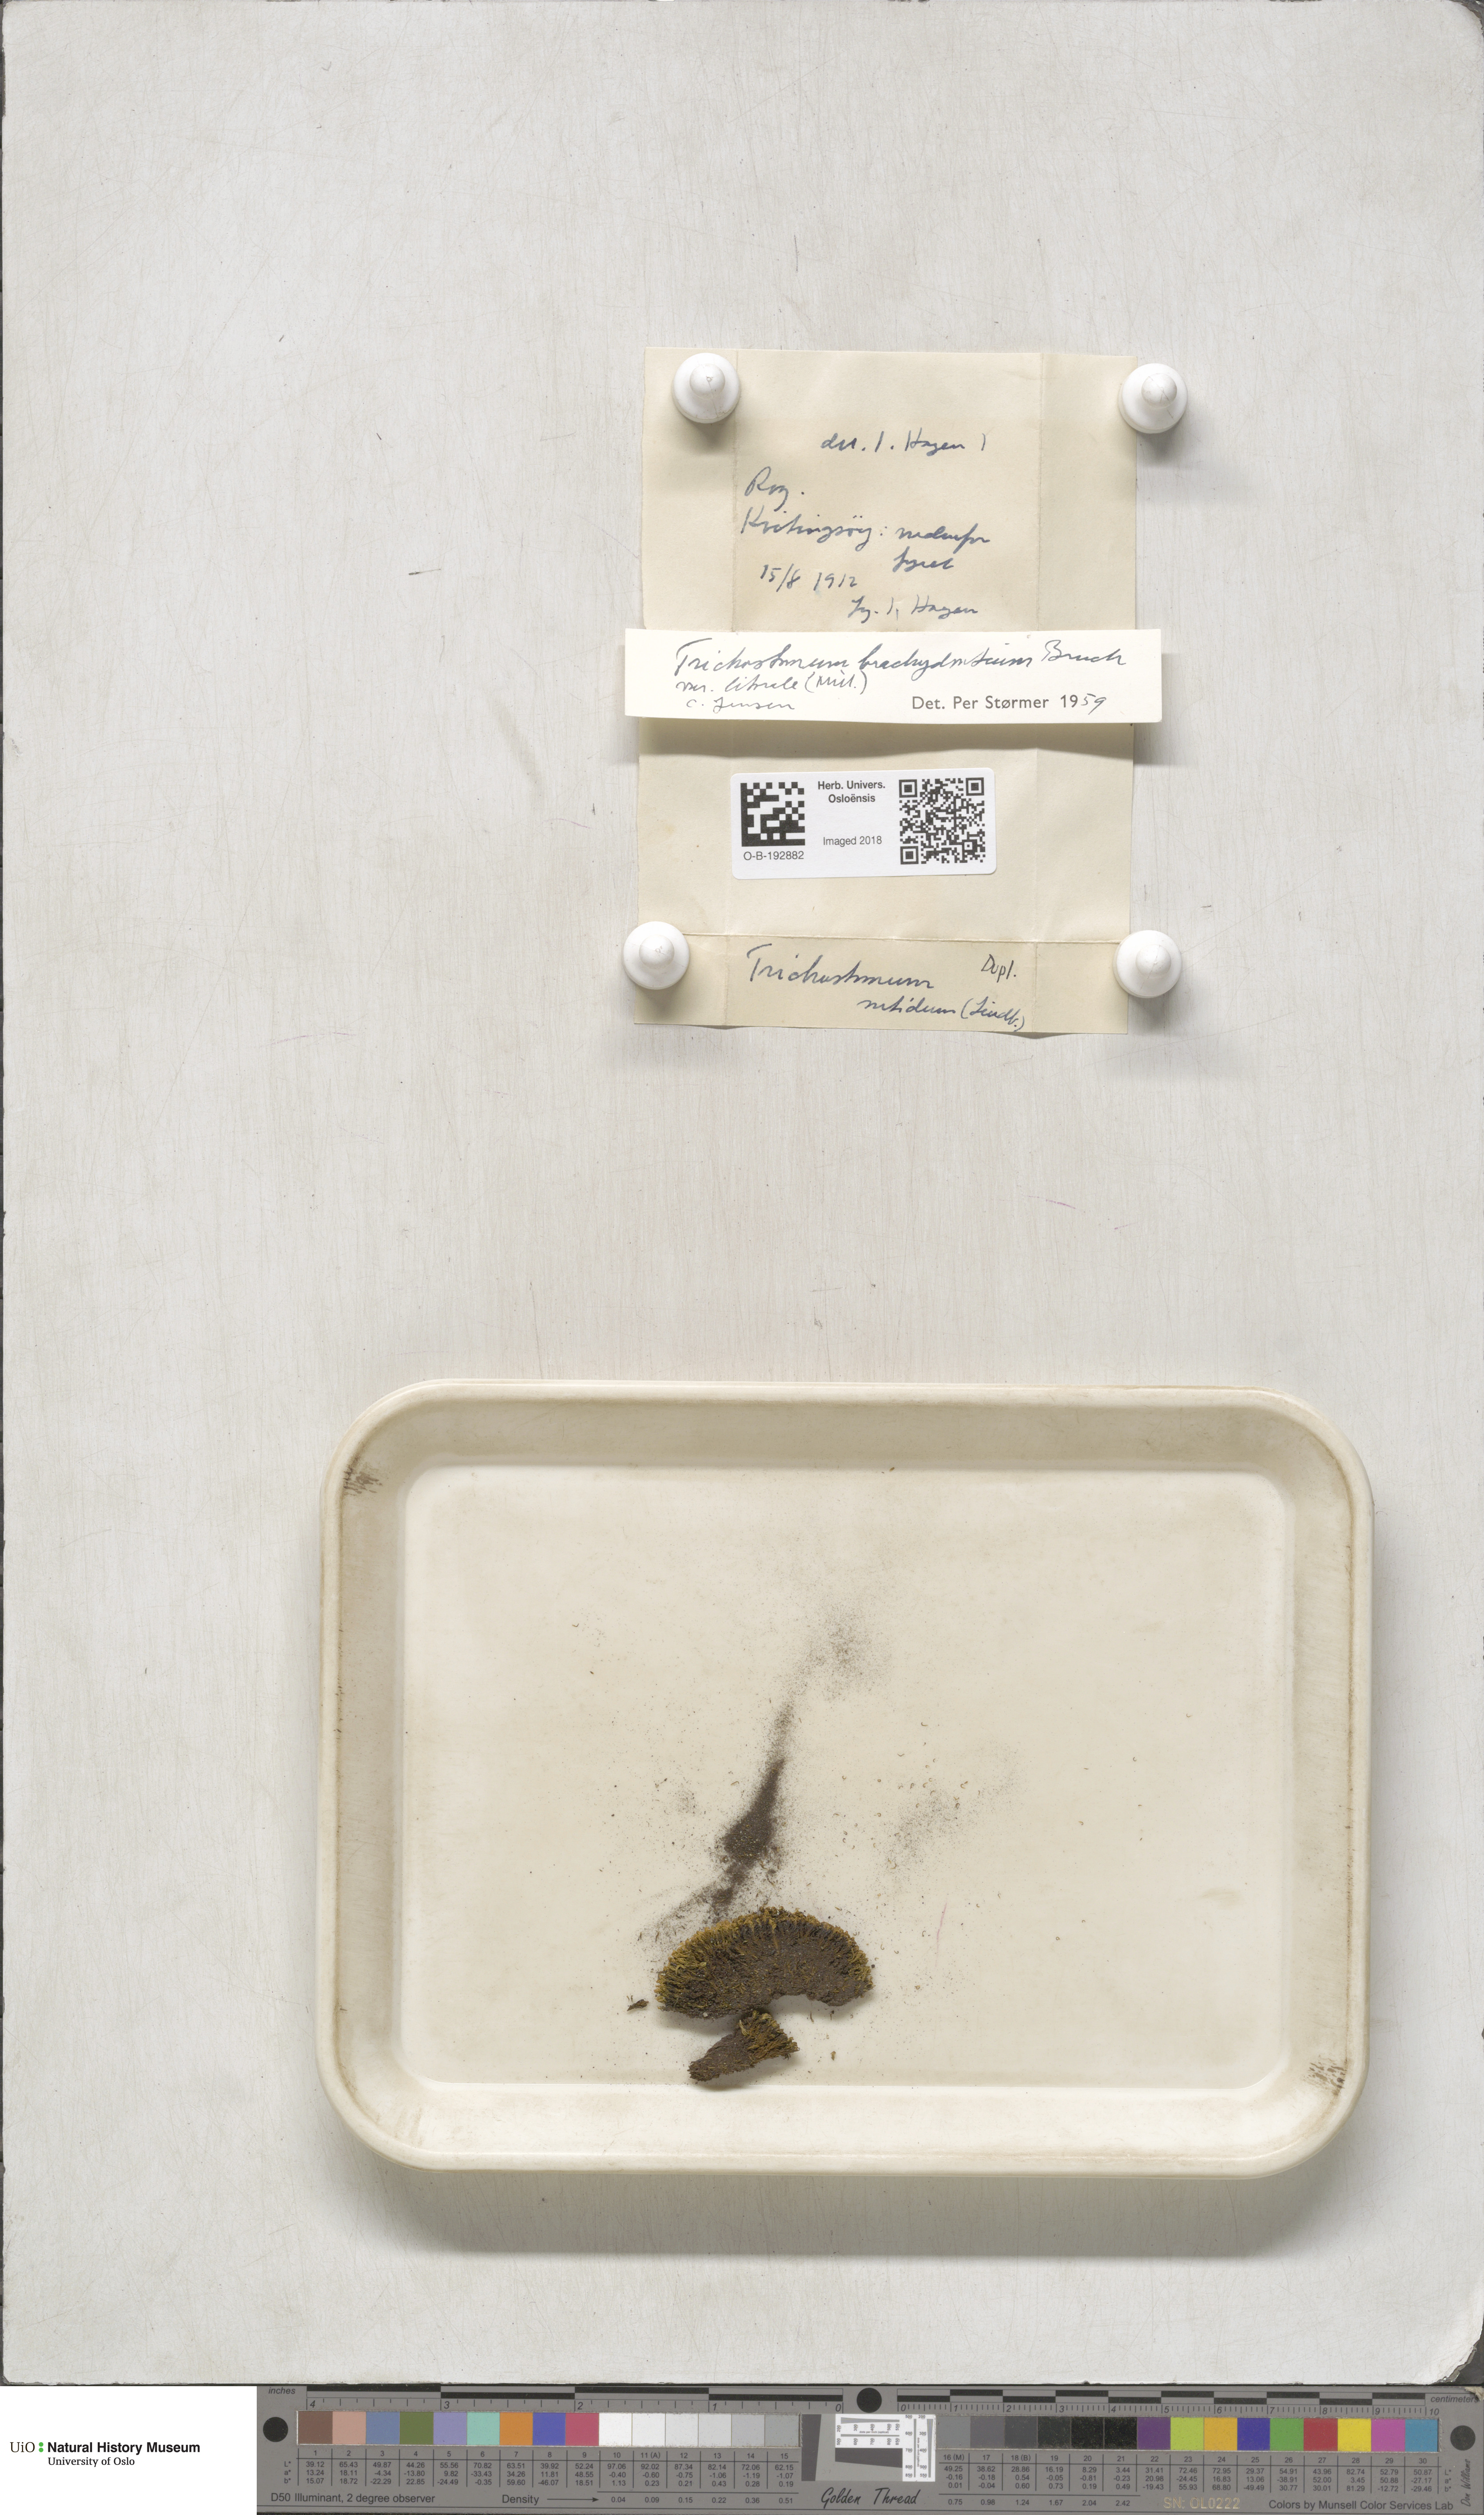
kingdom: Plantae
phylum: Bryophyta
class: Bryopsida
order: Pottiales
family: Pottiaceae
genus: Trichostomum
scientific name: Trichostomum brachydontium
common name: Variable crisp-moss
